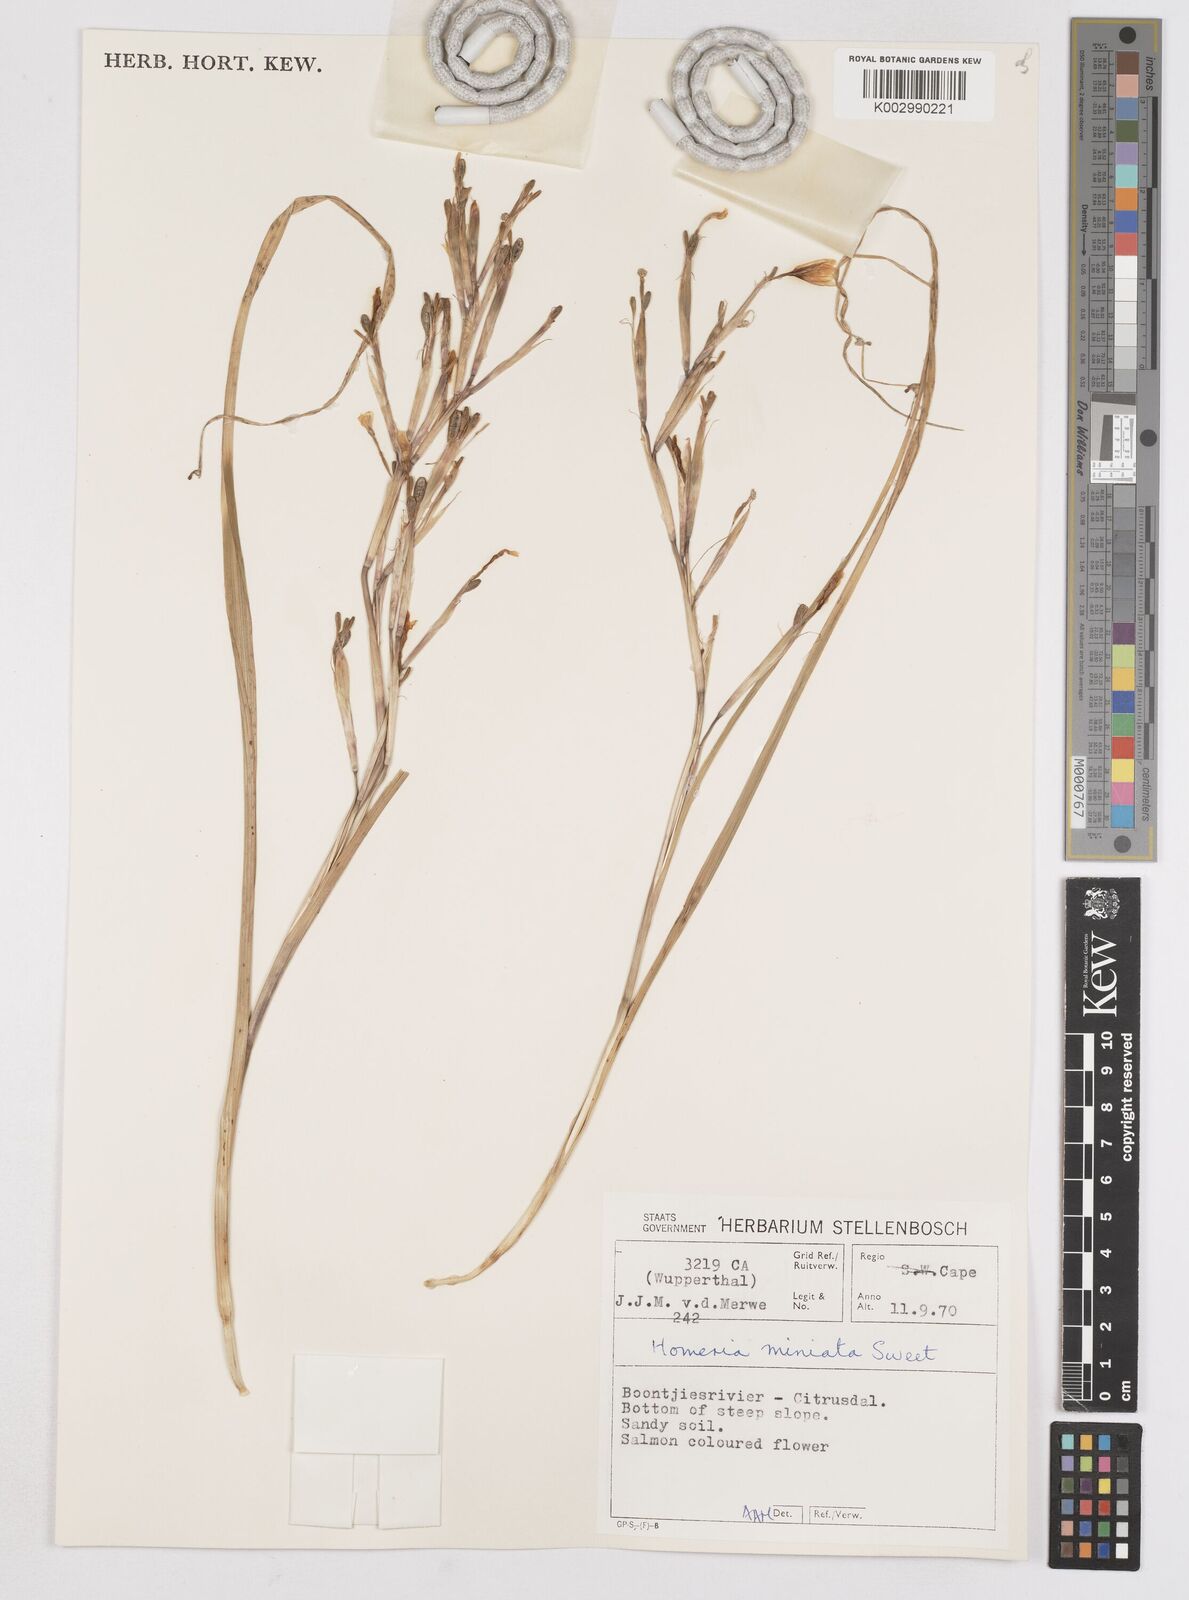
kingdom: Plantae
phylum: Tracheophyta
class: Liliopsida
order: Asparagales
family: Iridaceae
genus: Moraea
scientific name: Moraea miniata
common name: Two-leaf cape-tulip
